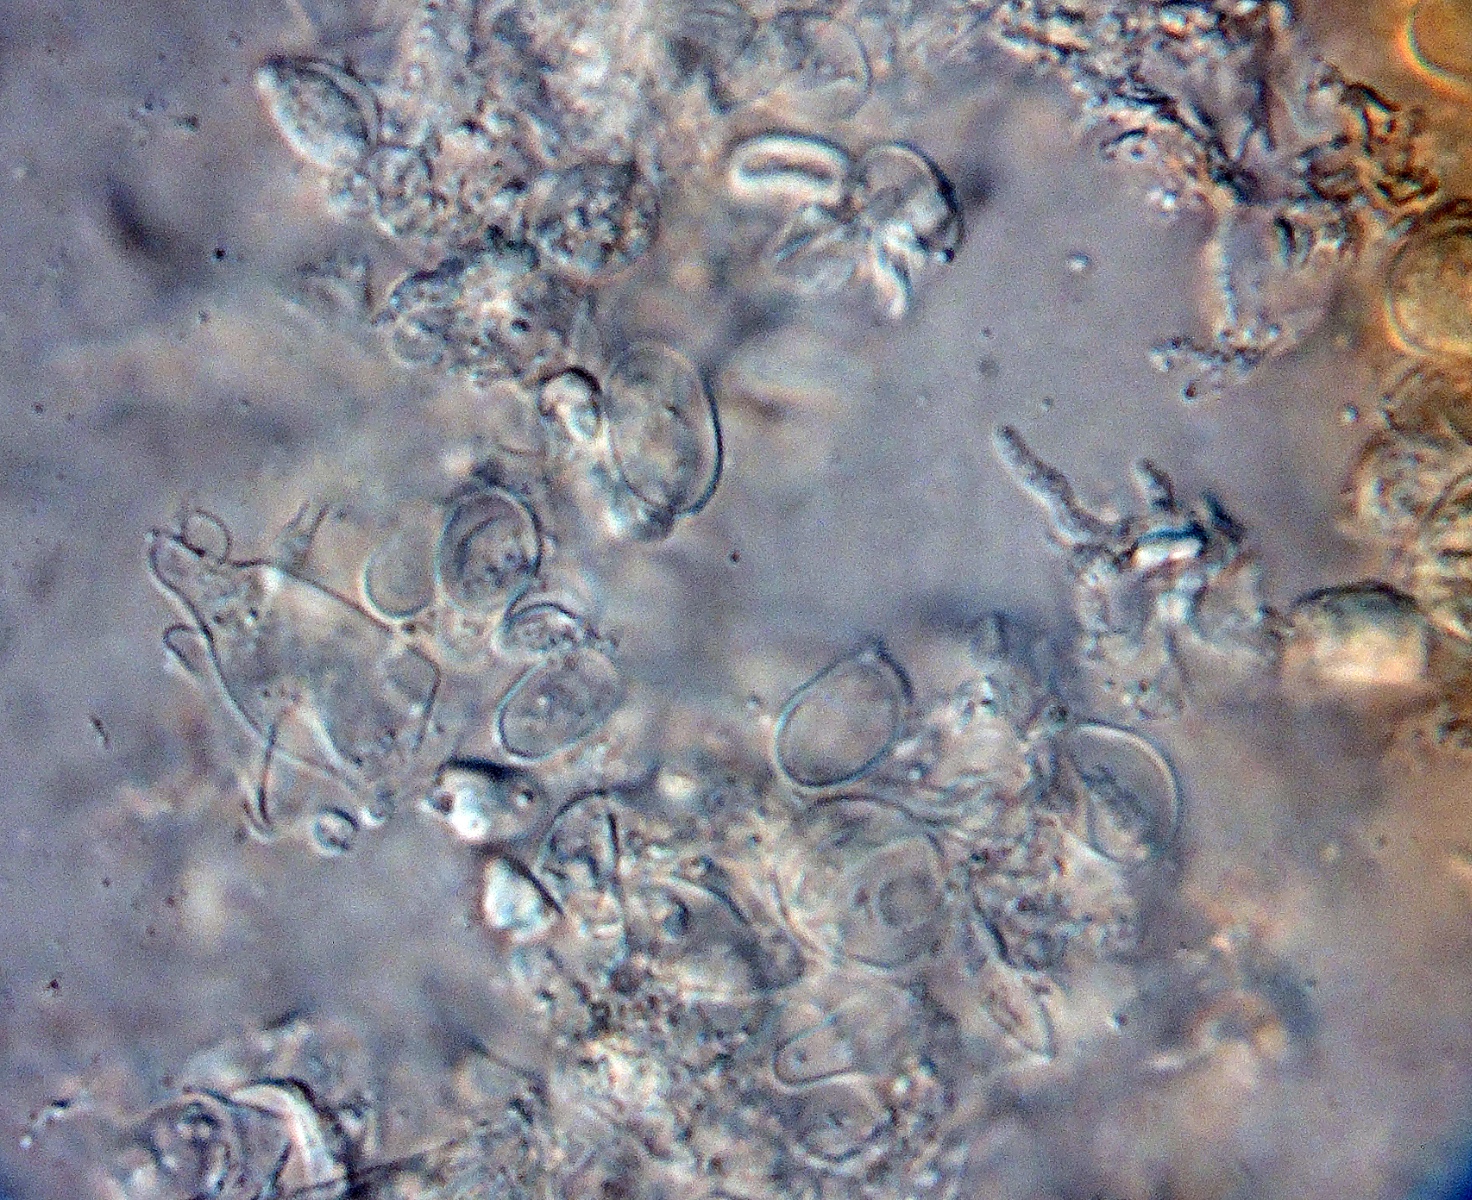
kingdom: Fungi
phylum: Basidiomycota
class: Agaricomycetes
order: Agaricales
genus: Dendrothele
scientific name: Dendrothele pachysterigmata
